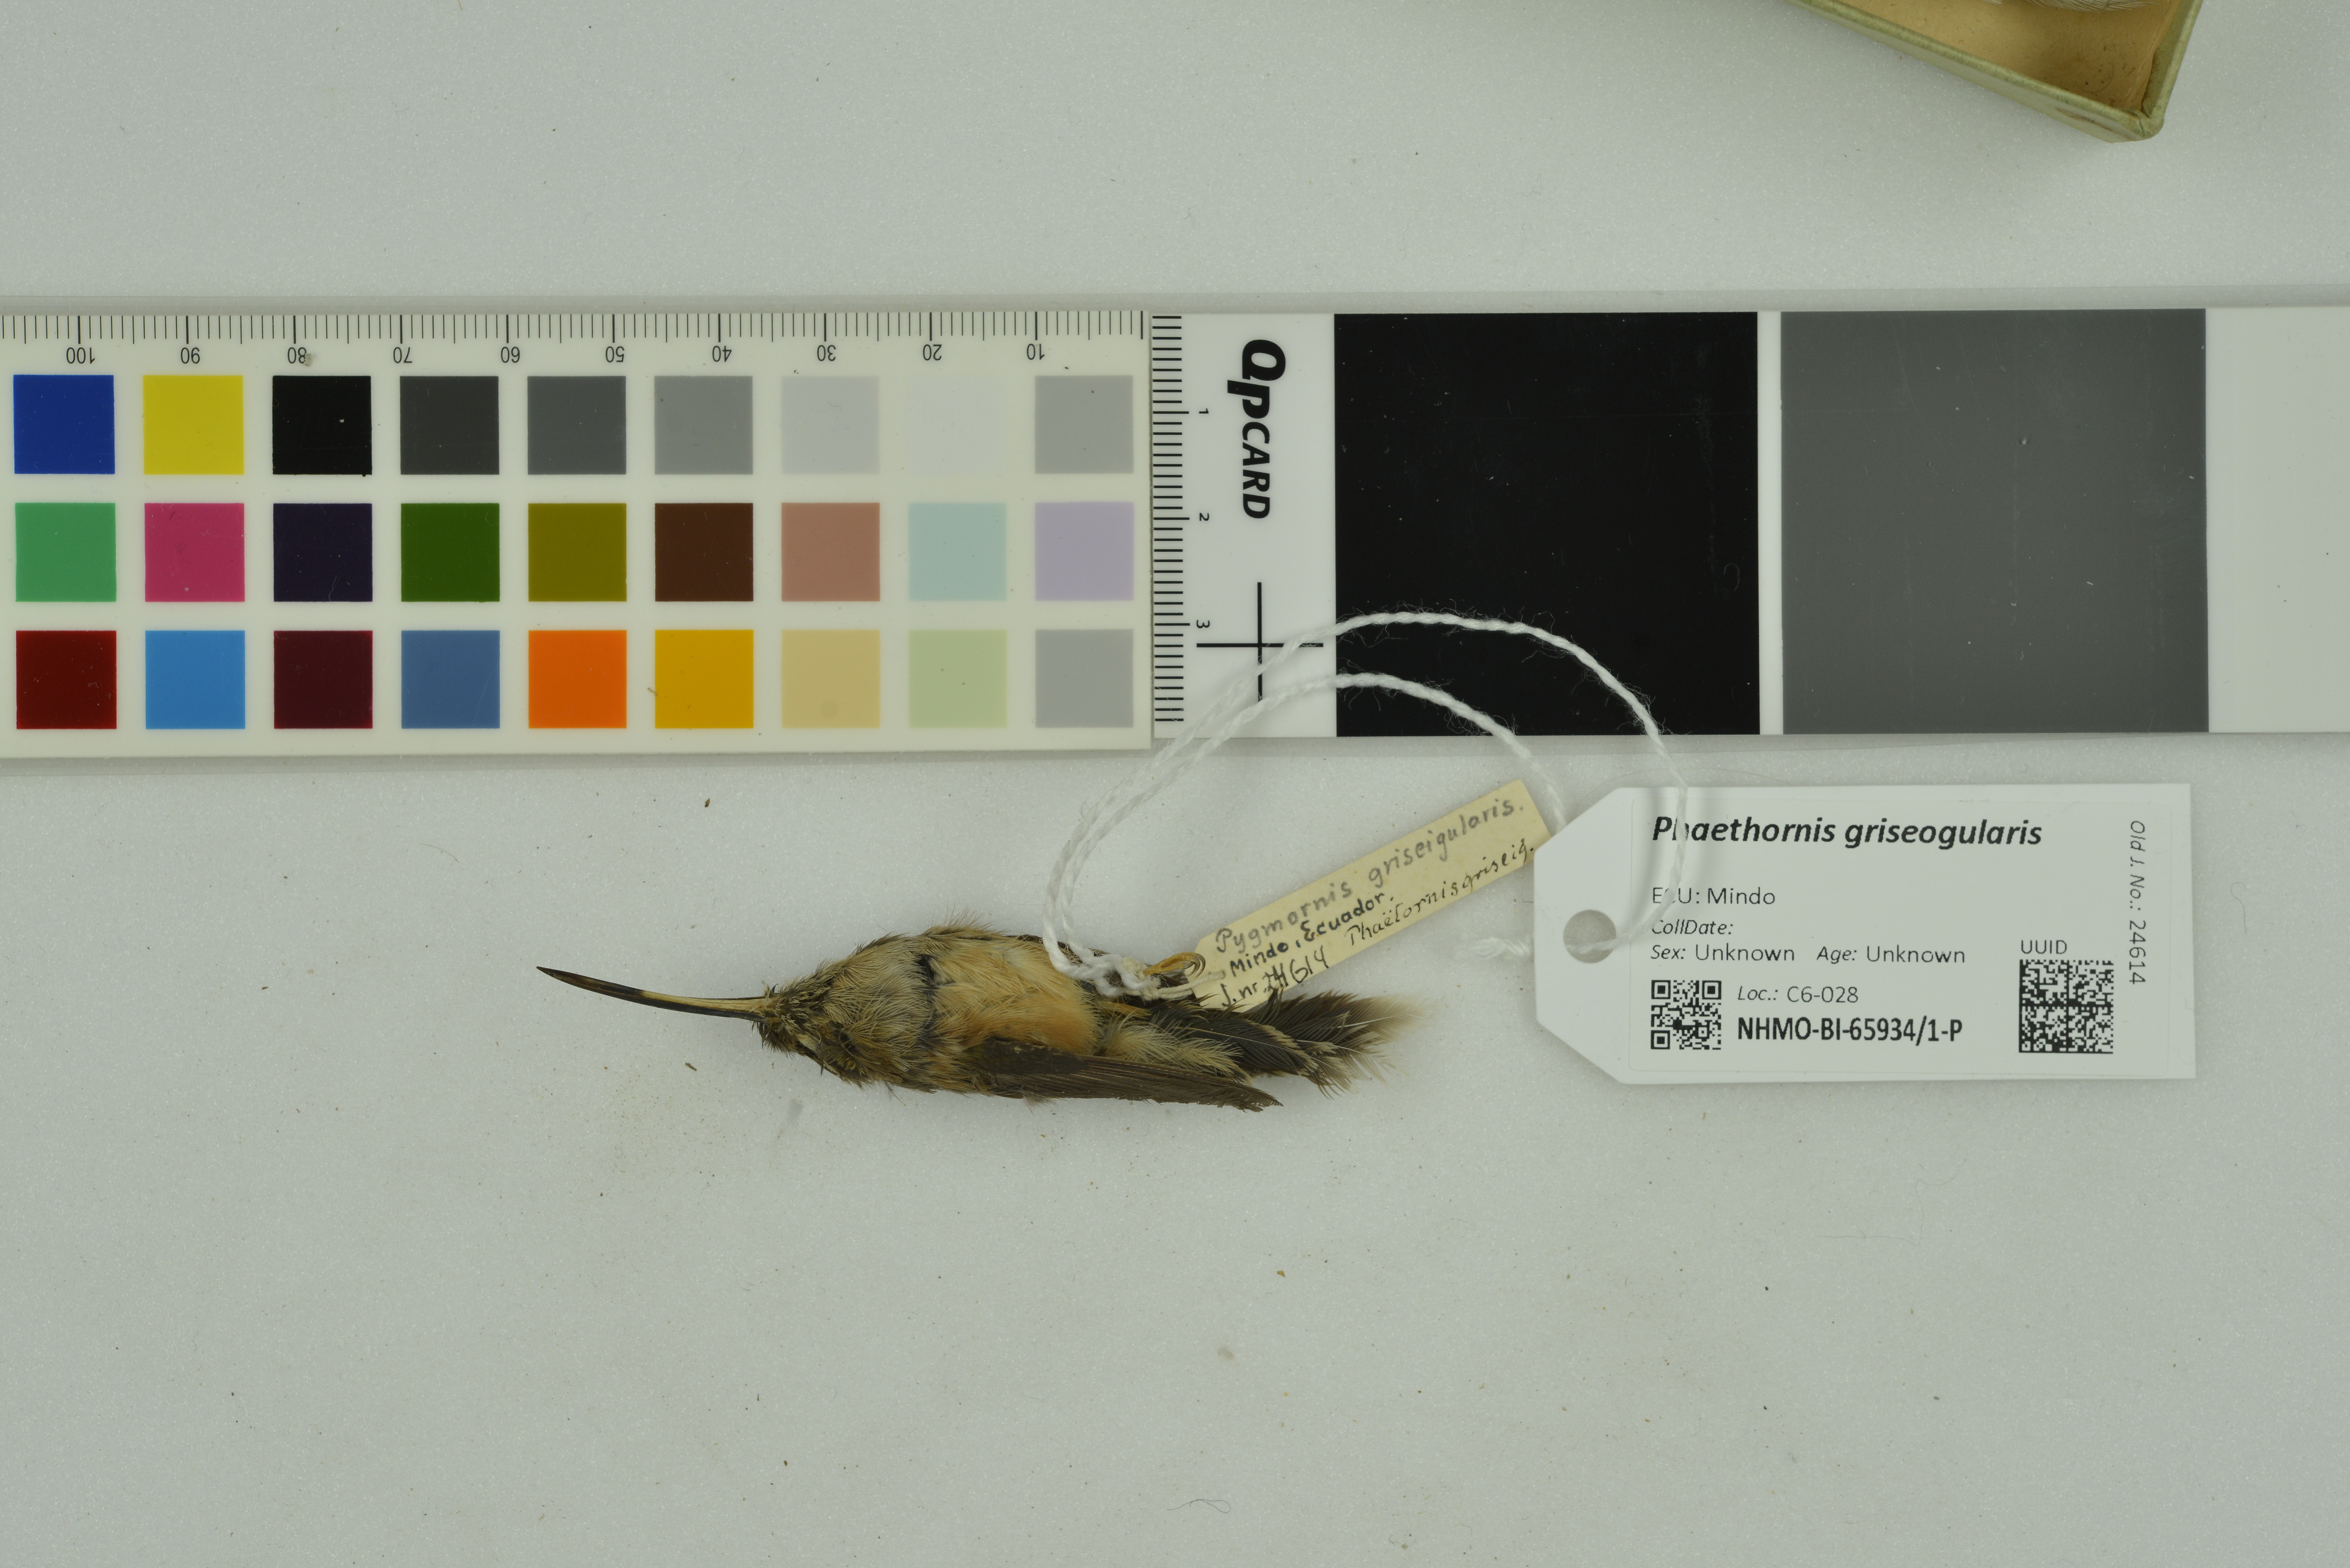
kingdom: Animalia
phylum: Chordata
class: Aves
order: Apodiformes
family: Trochilidae
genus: Phaethornis
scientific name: Phaethornis griseogularis
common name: Gray-chinned hermit
